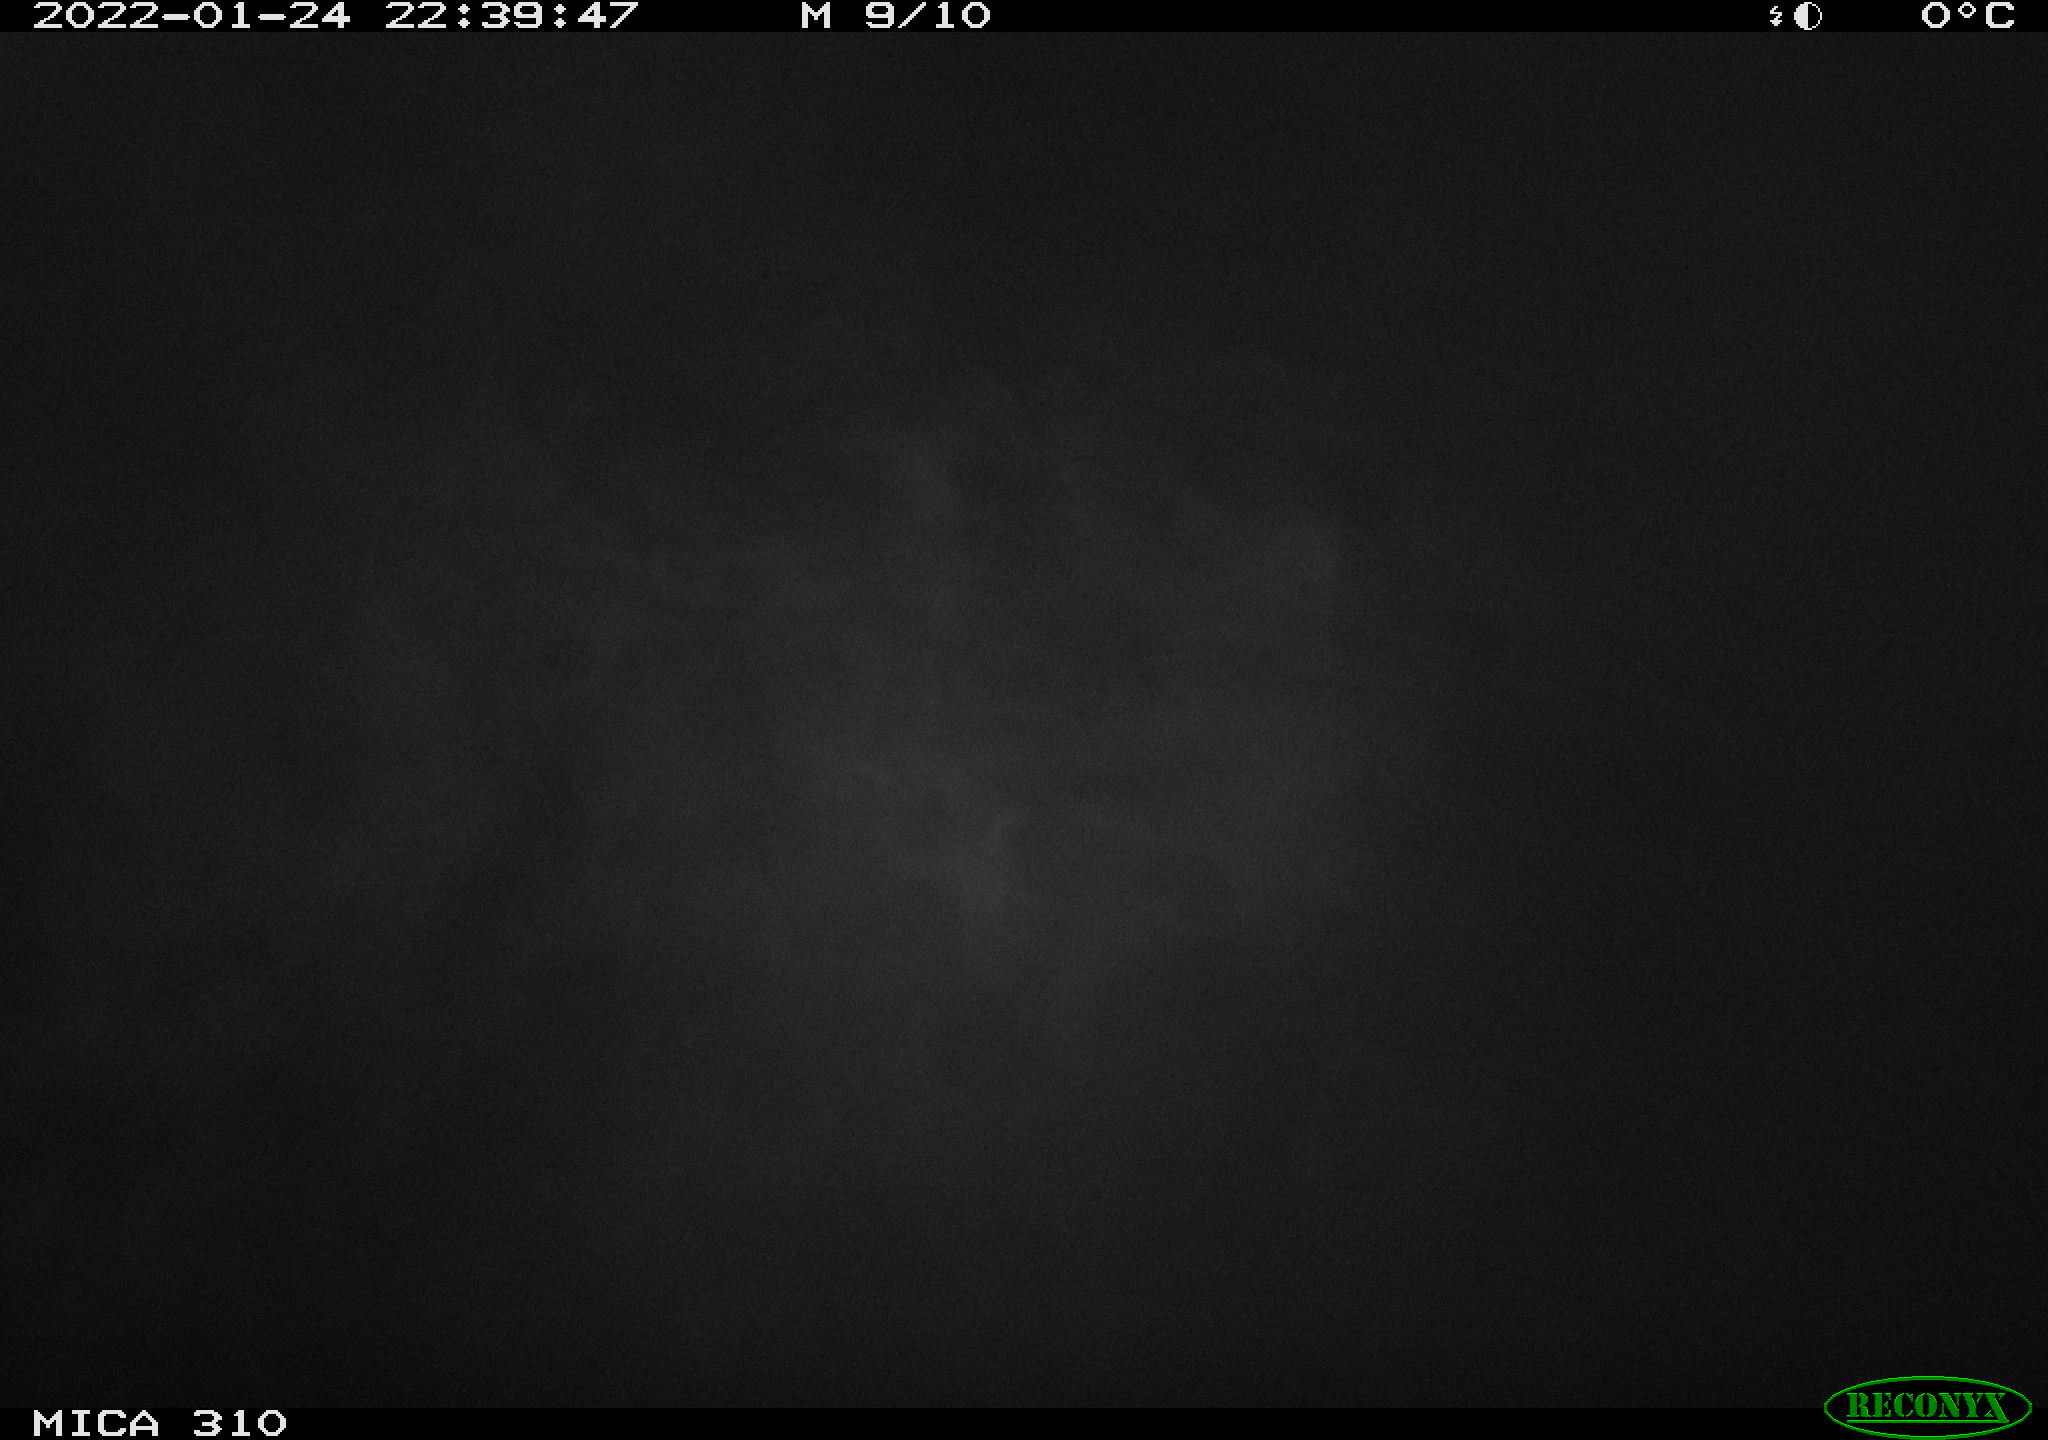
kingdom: Animalia
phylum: Chordata
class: Mammalia
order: Rodentia
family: Cricetidae
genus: Ondatra
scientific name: Ondatra zibethicus
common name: Muskrat
